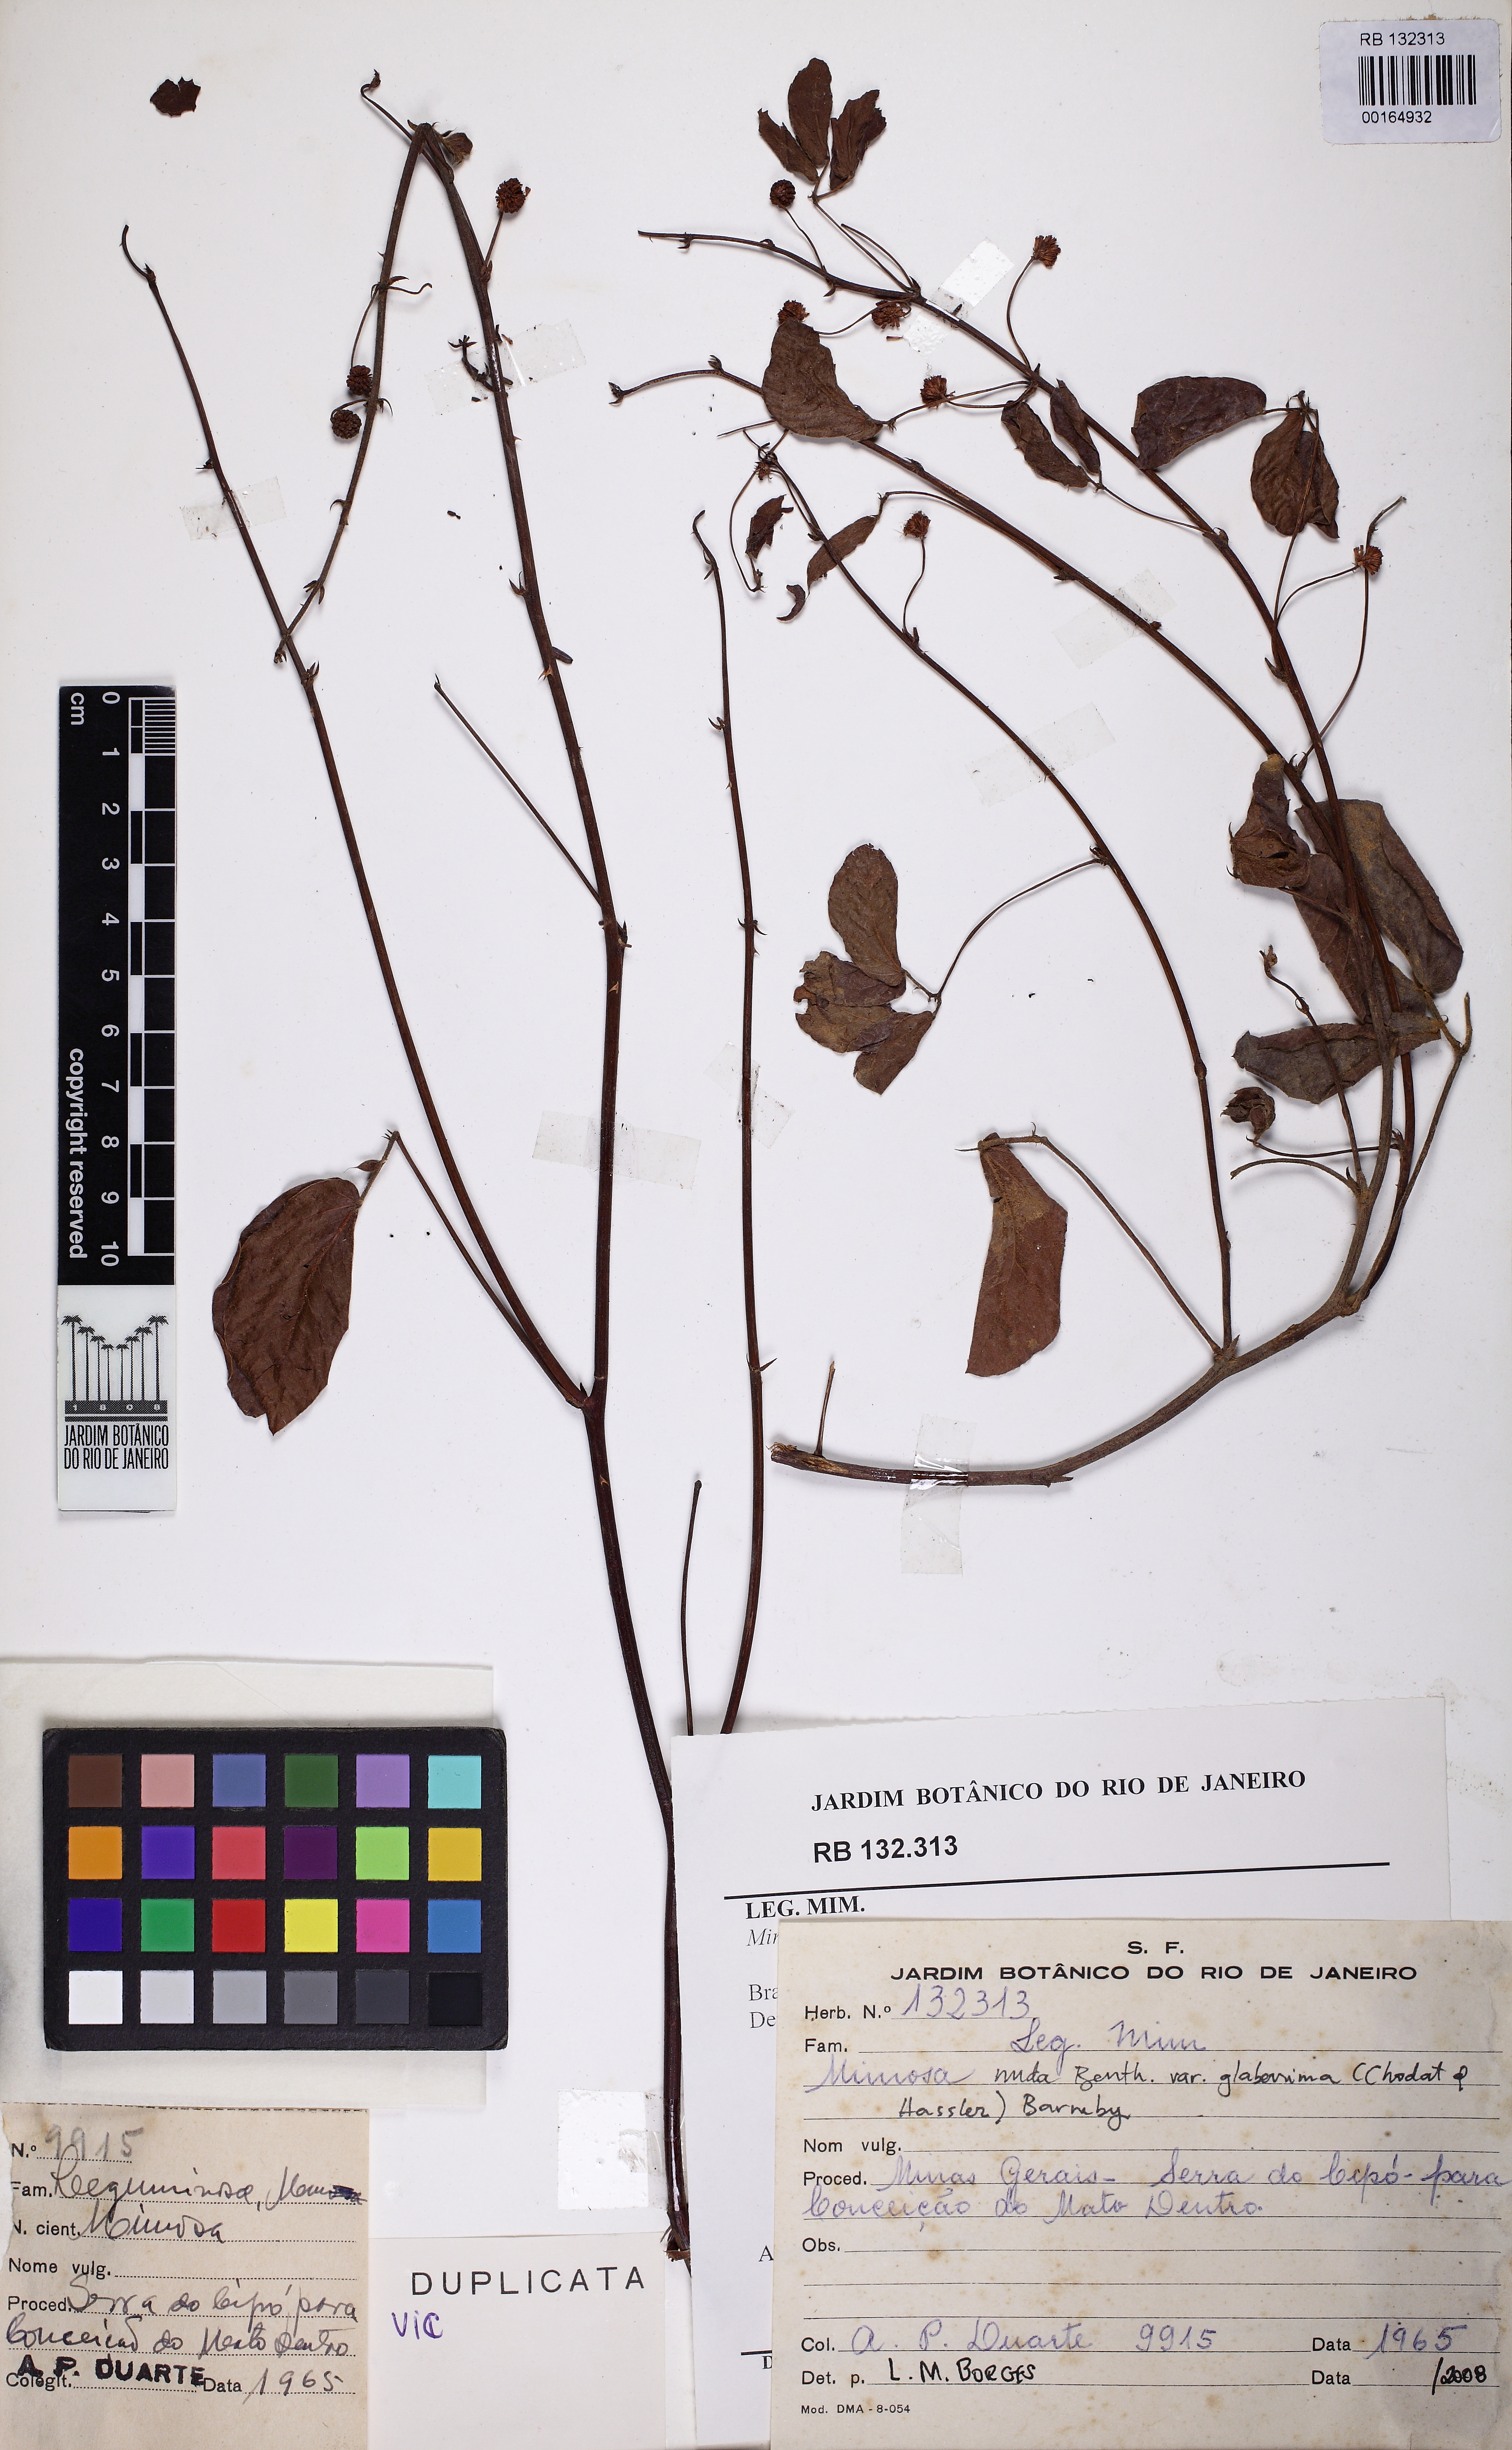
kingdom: Plantae
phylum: Tracheophyta
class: Magnoliopsida
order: Fabales
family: Fabaceae
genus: Mimosa
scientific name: Mimosa debilis
